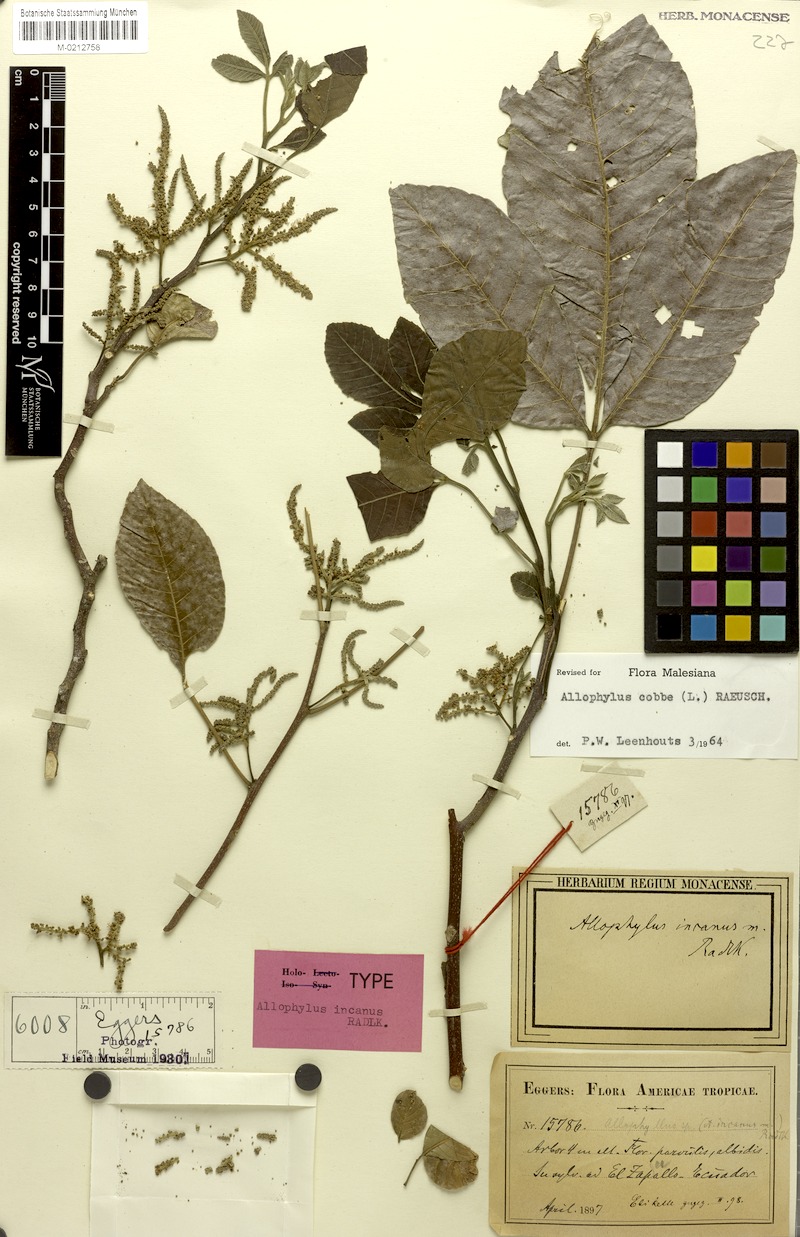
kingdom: Plantae
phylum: Tracheophyta
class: Magnoliopsida
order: Sapindales
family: Sapindaceae
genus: Allophylus
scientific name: Allophylus incanus
